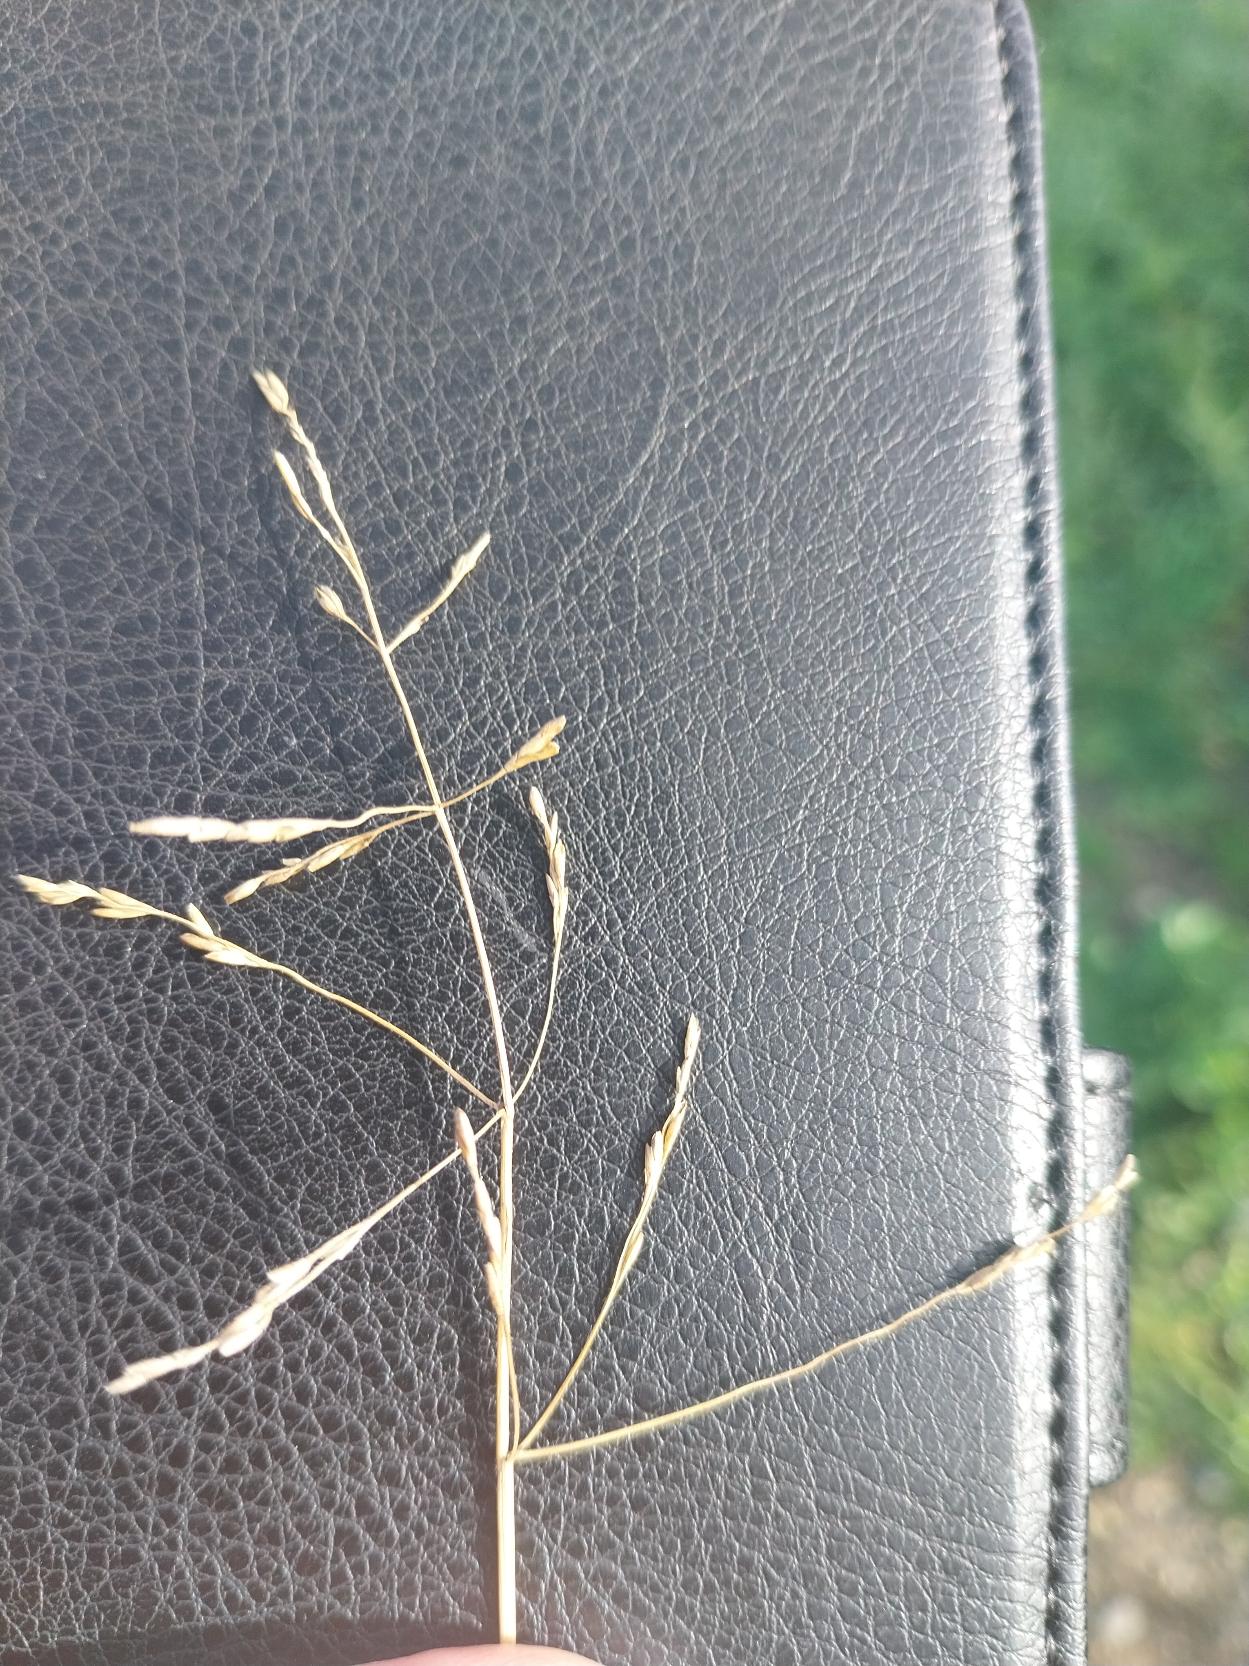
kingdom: Plantae
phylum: Tracheophyta
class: Liliopsida
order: Poales
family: Poaceae
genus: Puccinellia
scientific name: Puccinellia distans
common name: Udspærret annelgræs
